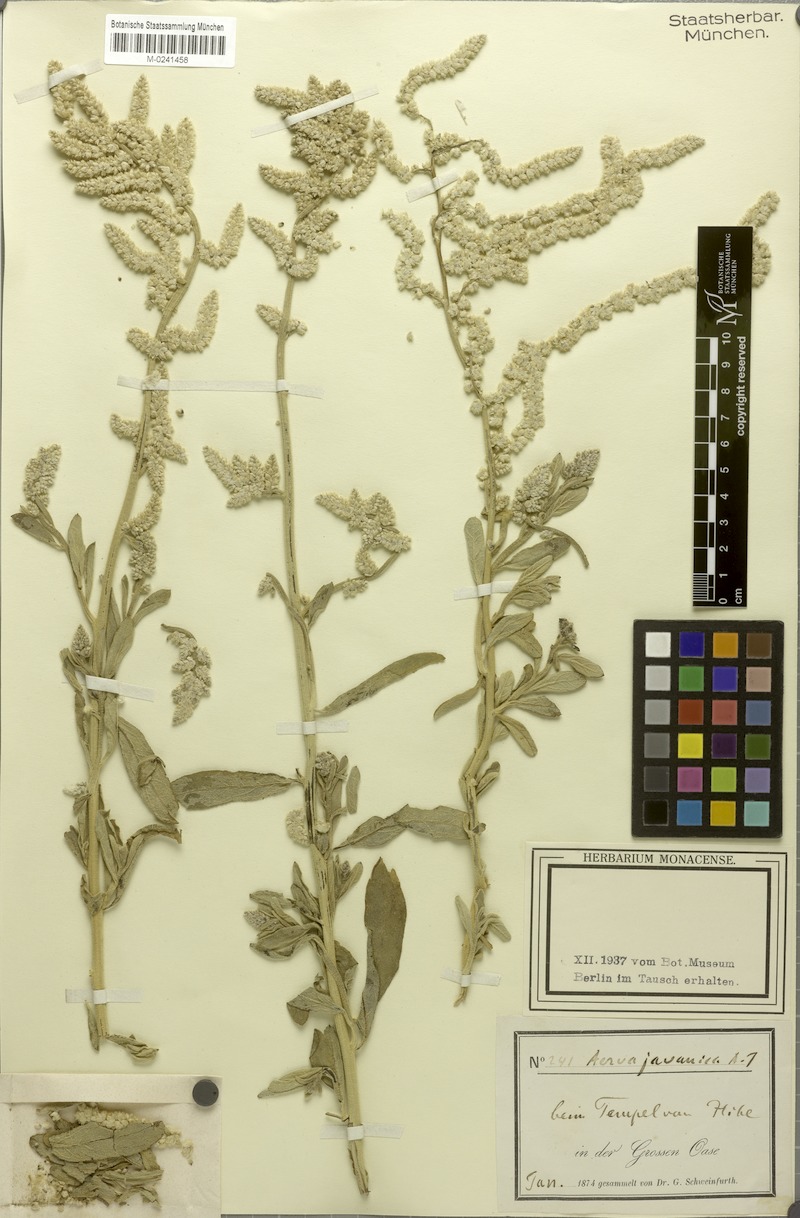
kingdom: Plantae
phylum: Tracheophyta
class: Magnoliopsida
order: Caryophyllales
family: Amaranthaceae
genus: Aerva
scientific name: Aerva javanica
